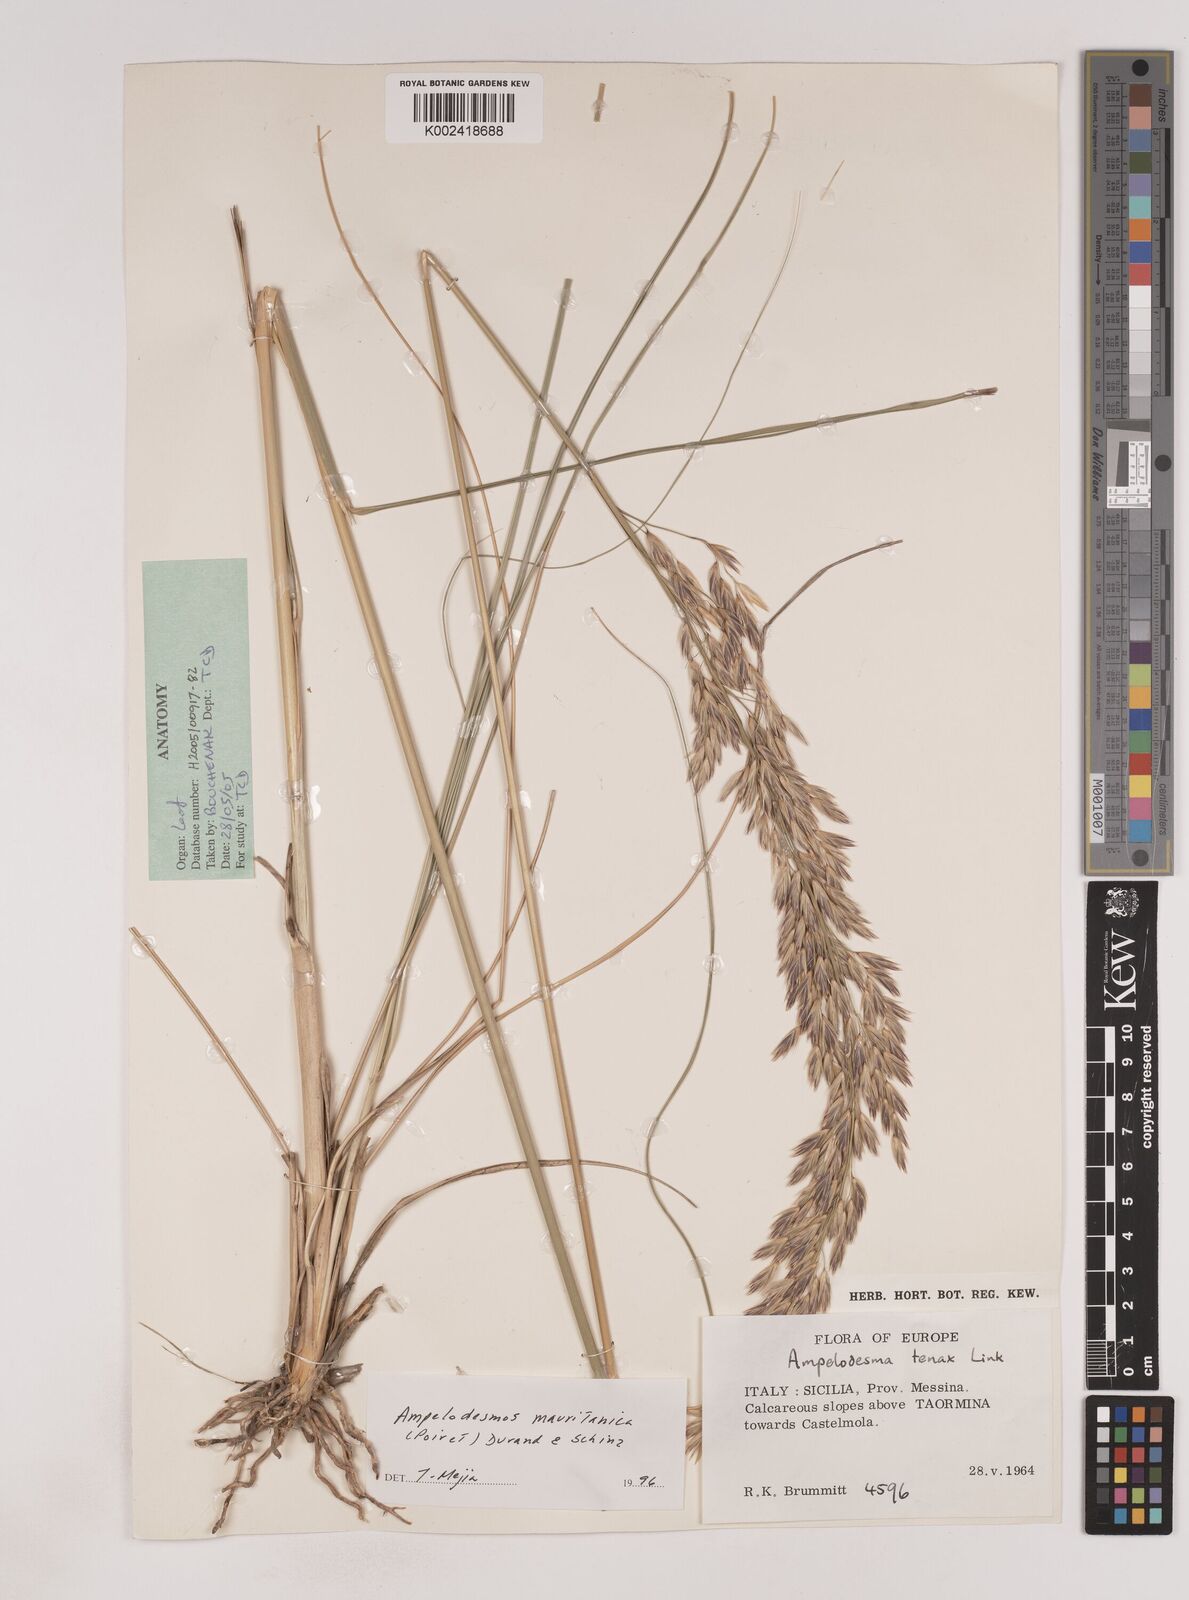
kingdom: Plantae
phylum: Tracheophyta
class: Liliopsida
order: Poales
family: Poaceae
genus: Ampelodesmos
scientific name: Ampelodesmos mauritanicus
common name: Mauritanian grass
